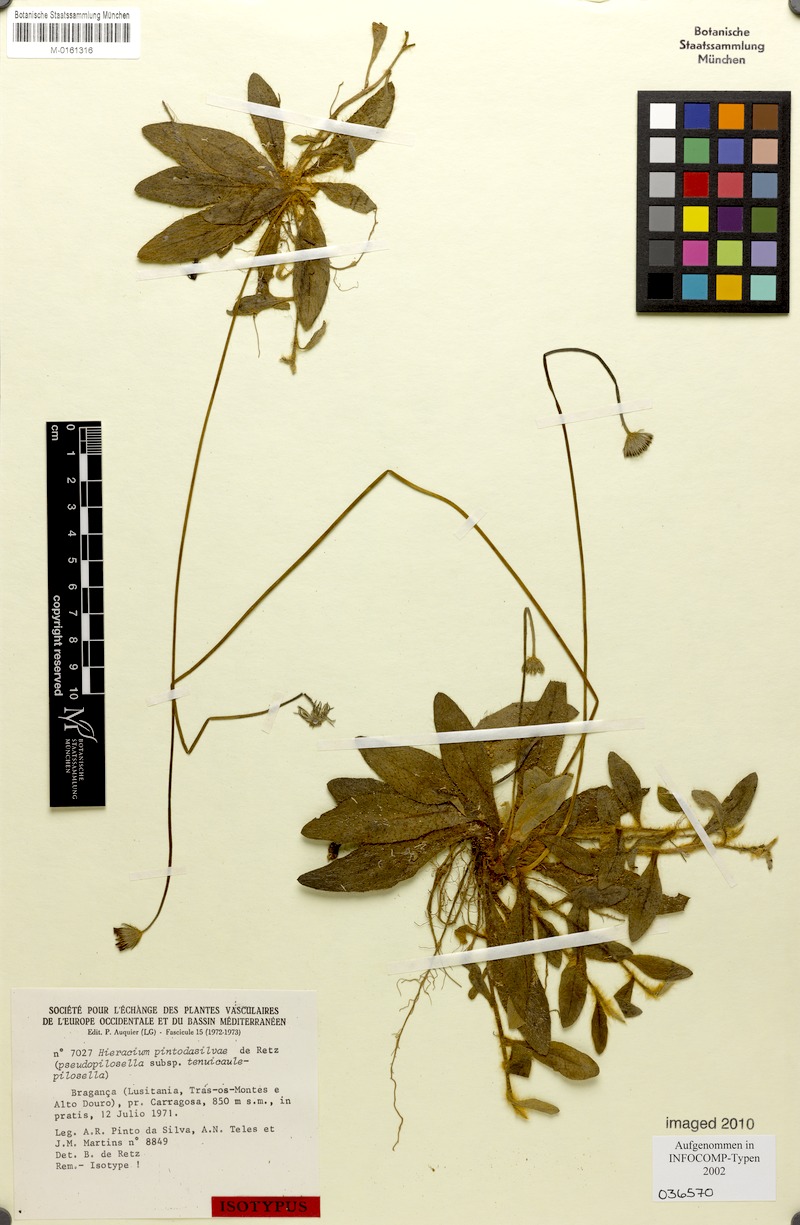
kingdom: Plantae
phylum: Tracheophyta
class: Magnoliopsida
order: Asterales
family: Asteraceae
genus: Pilosella
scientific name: Pilosella pintodasilvae
